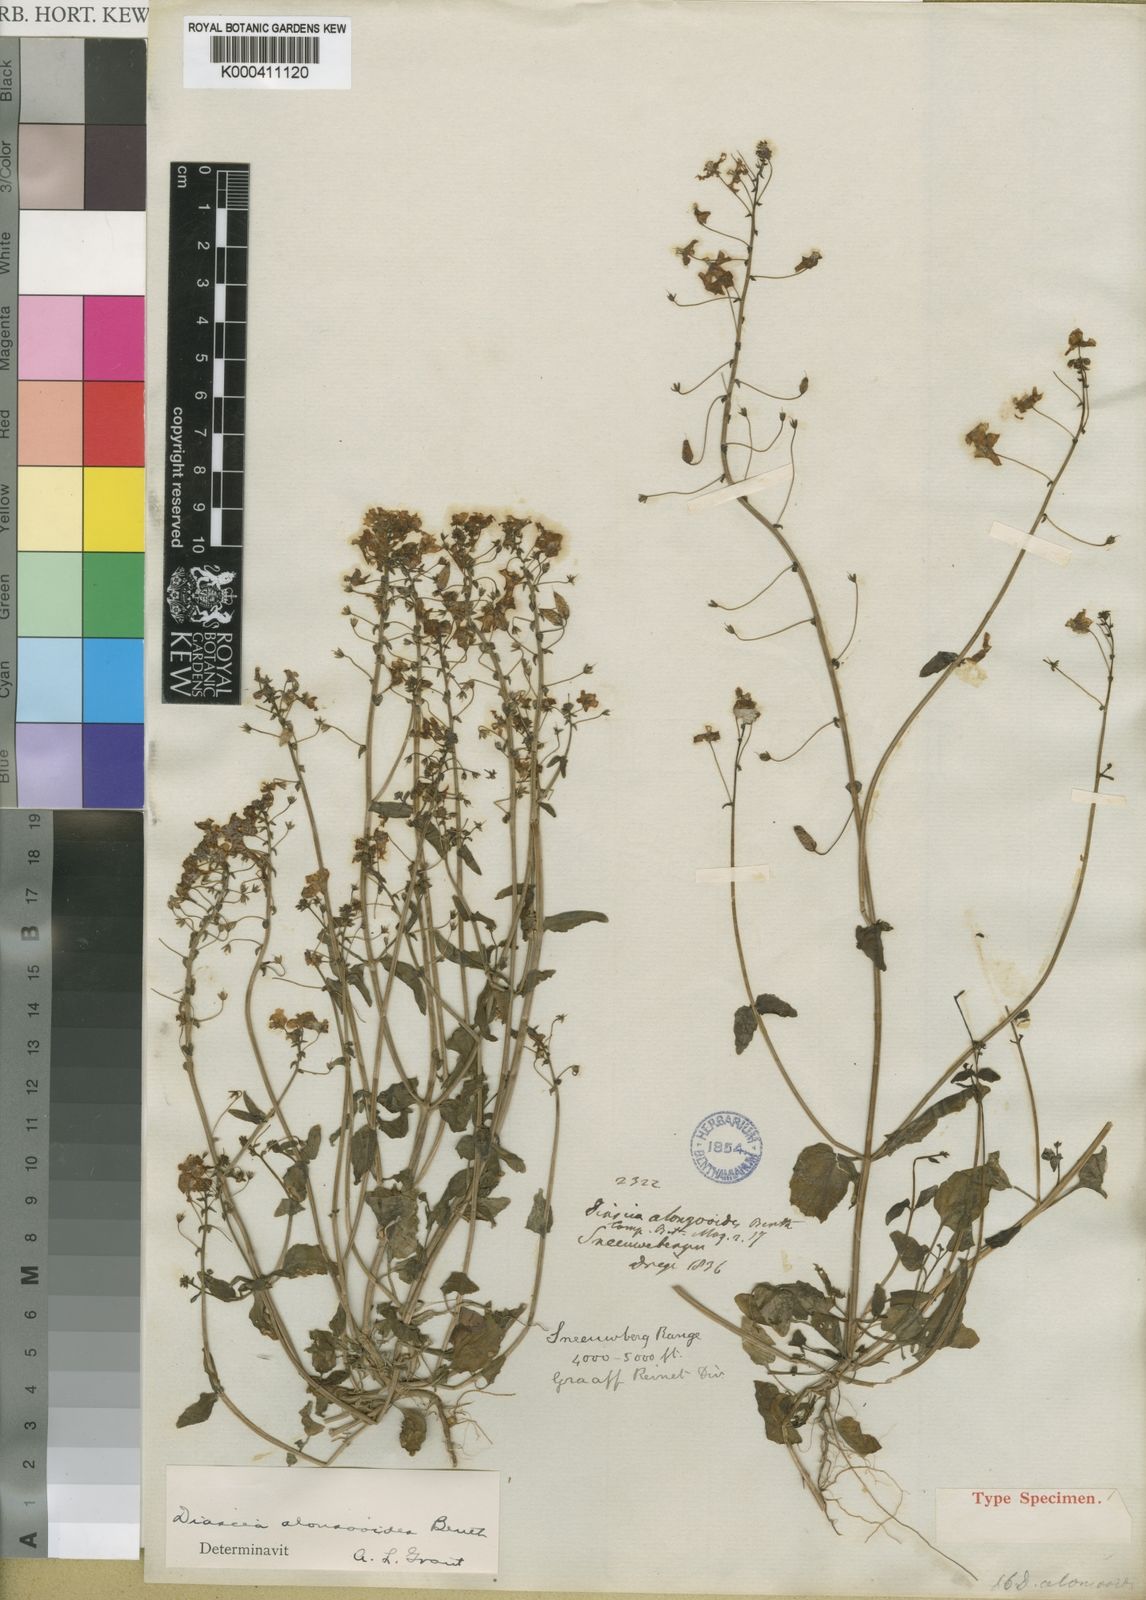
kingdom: Plantae
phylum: Tracheophyta
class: Magnoliopsida
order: Lamiales
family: Scrophulariaceae
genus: Diascia
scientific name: Diascia alonsooides
